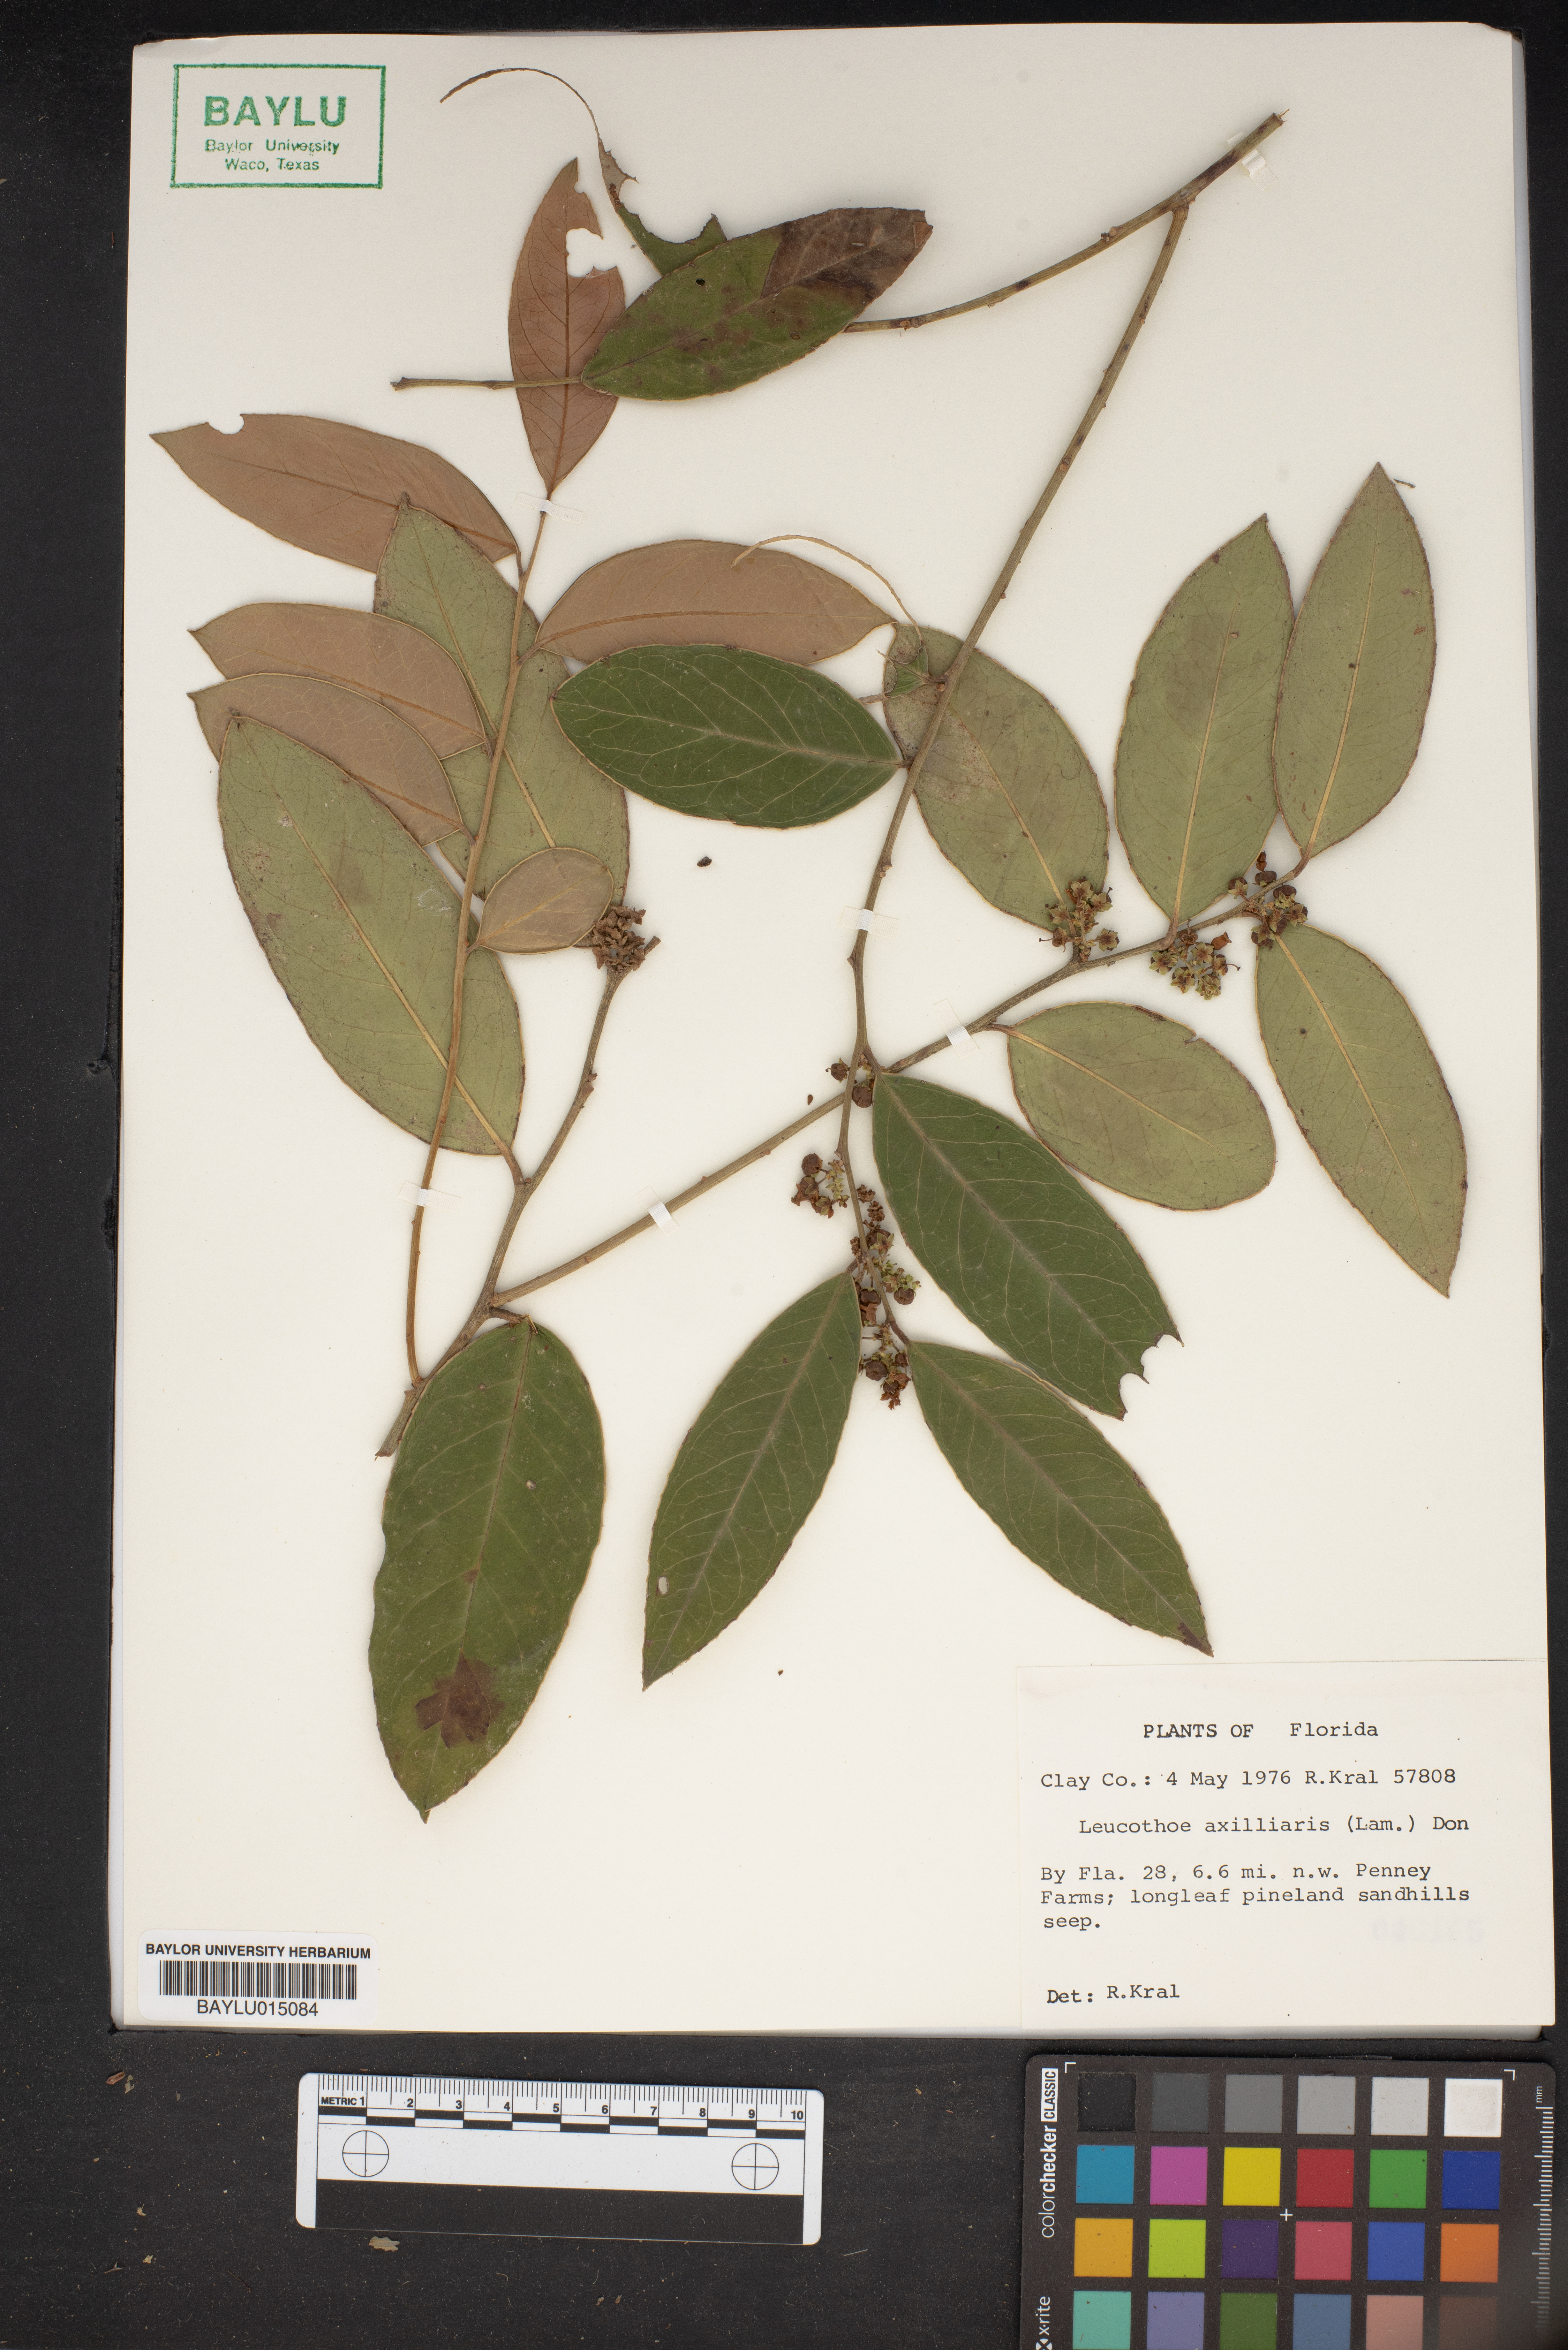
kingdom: Plantae
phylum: Tracheophyta
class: Magnoliopsida
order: Ericales
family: Ericaceae
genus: Leucothoe
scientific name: Leucothoe axillaris
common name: Leucothoe
